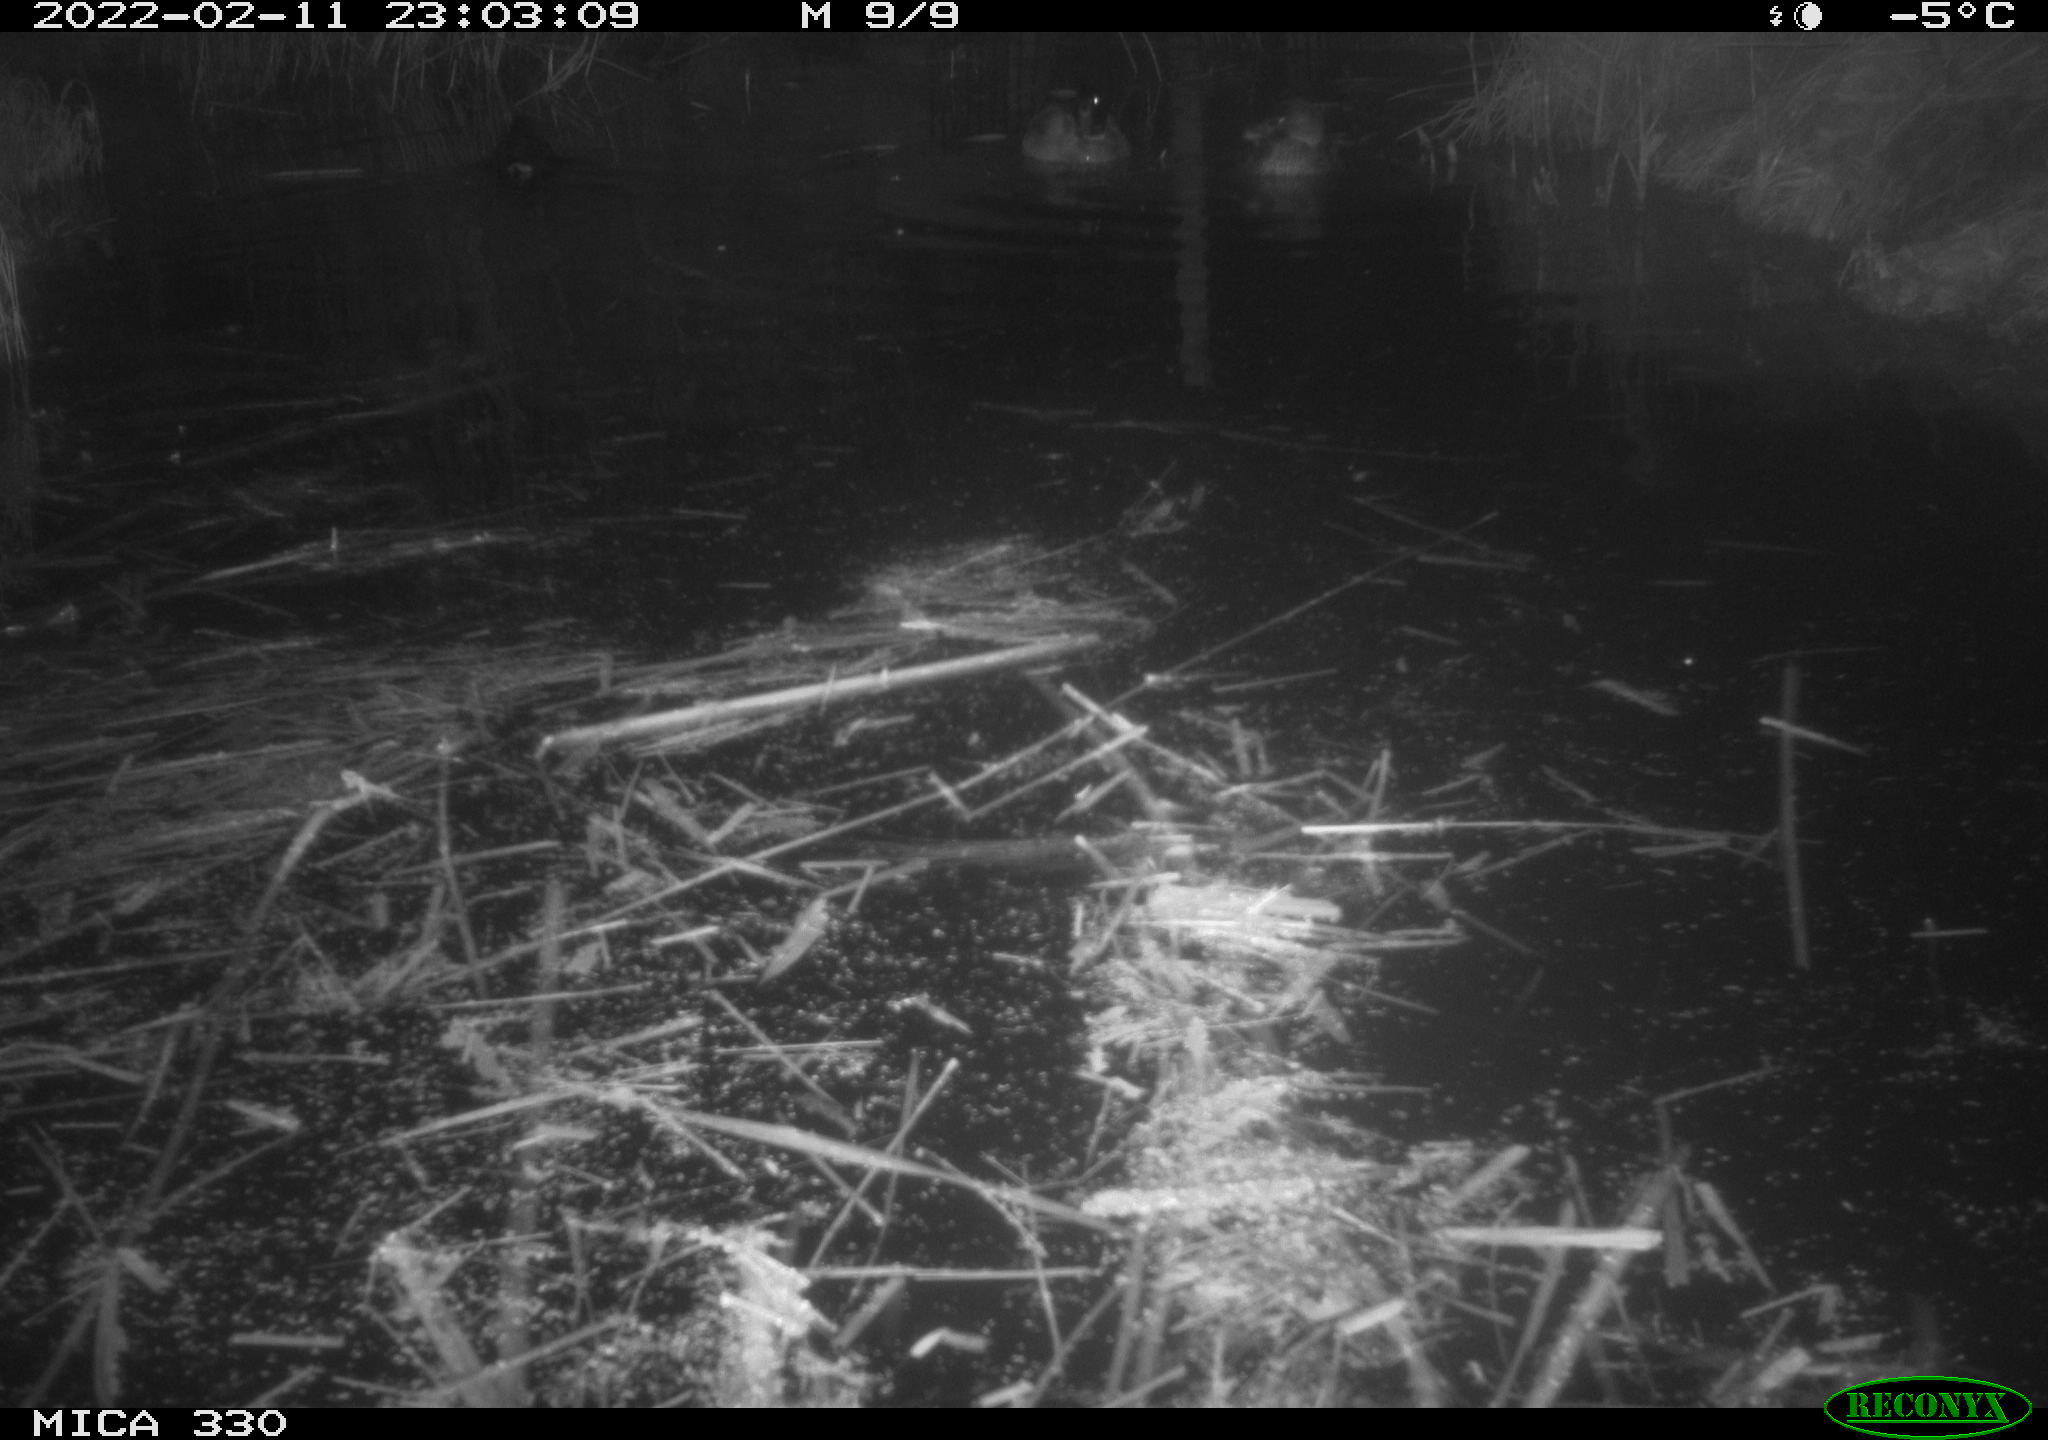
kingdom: Animalia
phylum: Chordata
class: Aves
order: Anseriformes
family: Anatidae
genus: Anas
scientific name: Anas platyrhynchos
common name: Mallard
